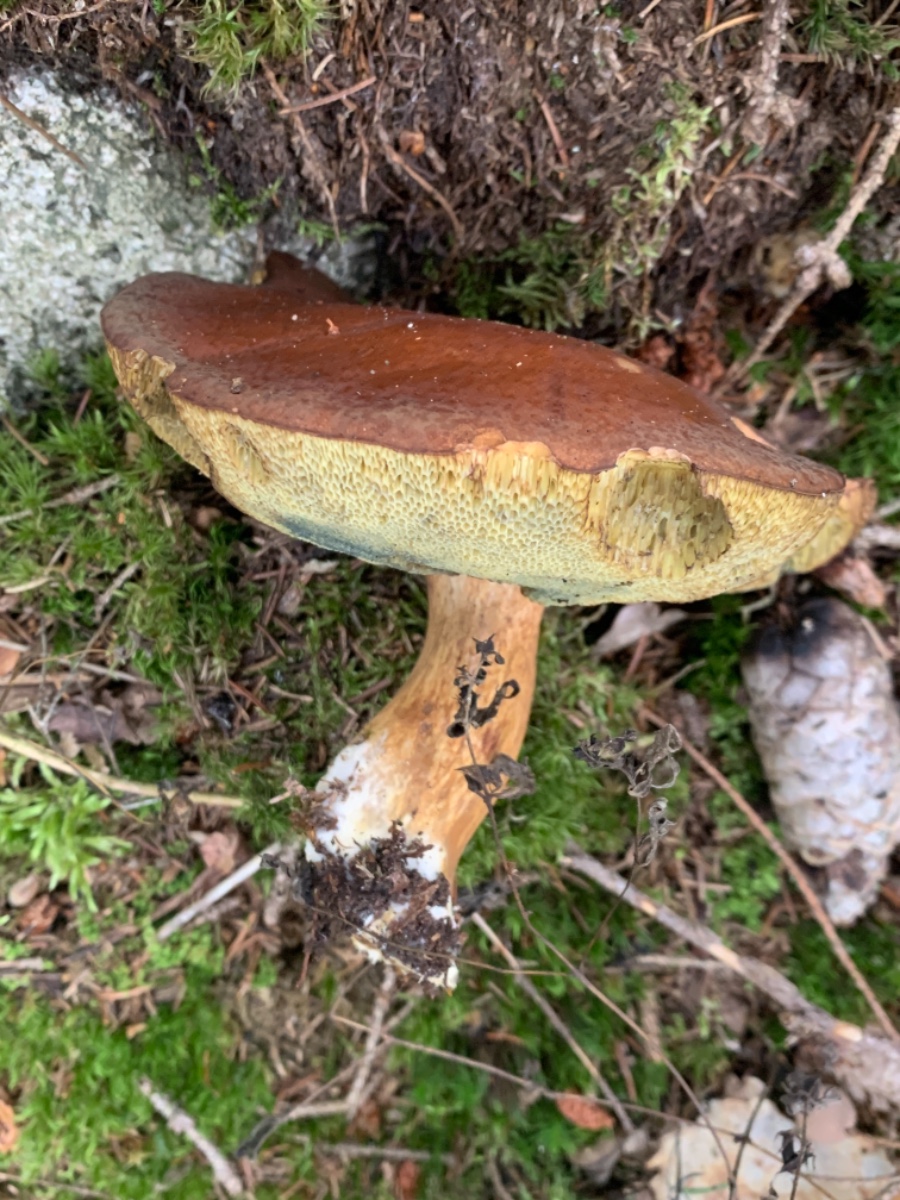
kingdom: Fungi
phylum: Basidiomycota
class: Agaricomycetes
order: Boletales
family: Boletaceae
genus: Imleria
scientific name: Imleria badia
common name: brunstokket rørhat
